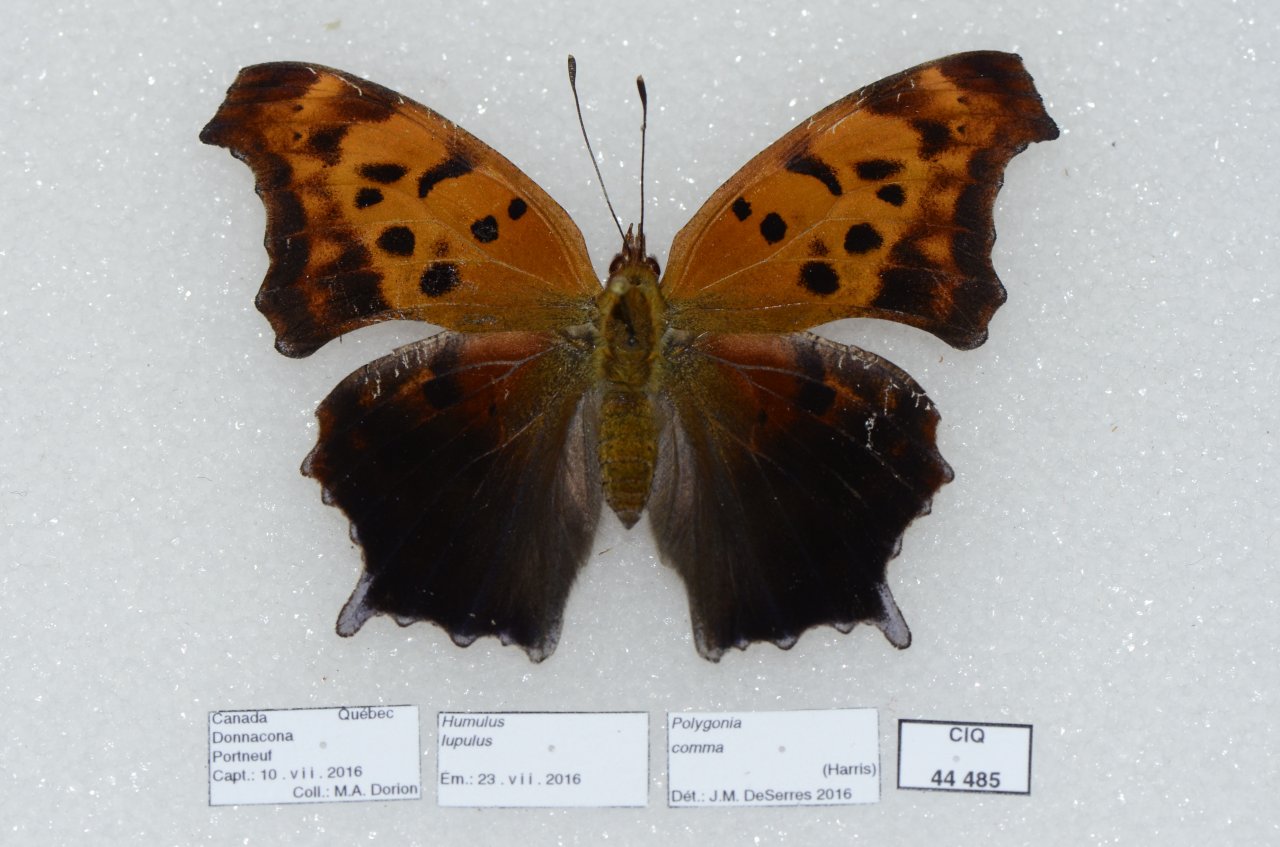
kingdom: Animalia
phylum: Arthropoda
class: Insecta
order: Lepidoptera
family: Nymphalidae
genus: Polygonia
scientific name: Polygonia interrogationis
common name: Question Mark
